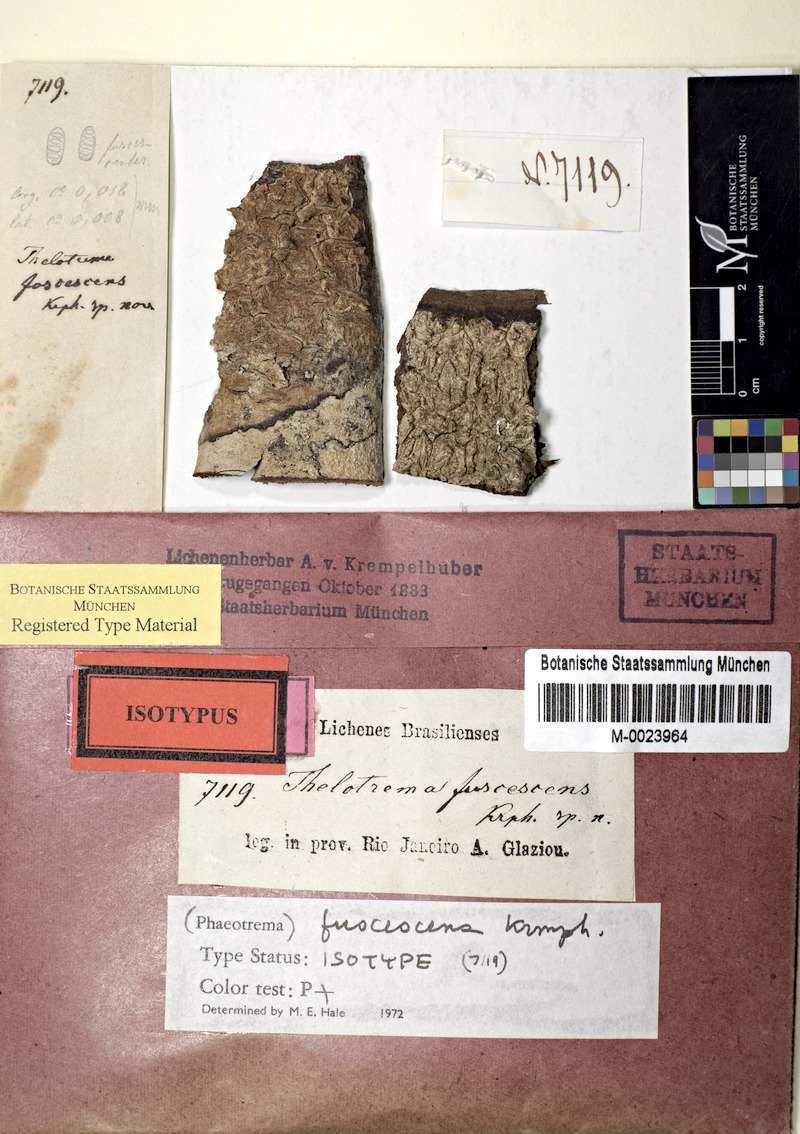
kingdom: Fungi
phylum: Ascomycota
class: Lecanoromycetes
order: Ostropales
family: Graphidaceae
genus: Phaeotrema
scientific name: Phaeotrema fuscescens
